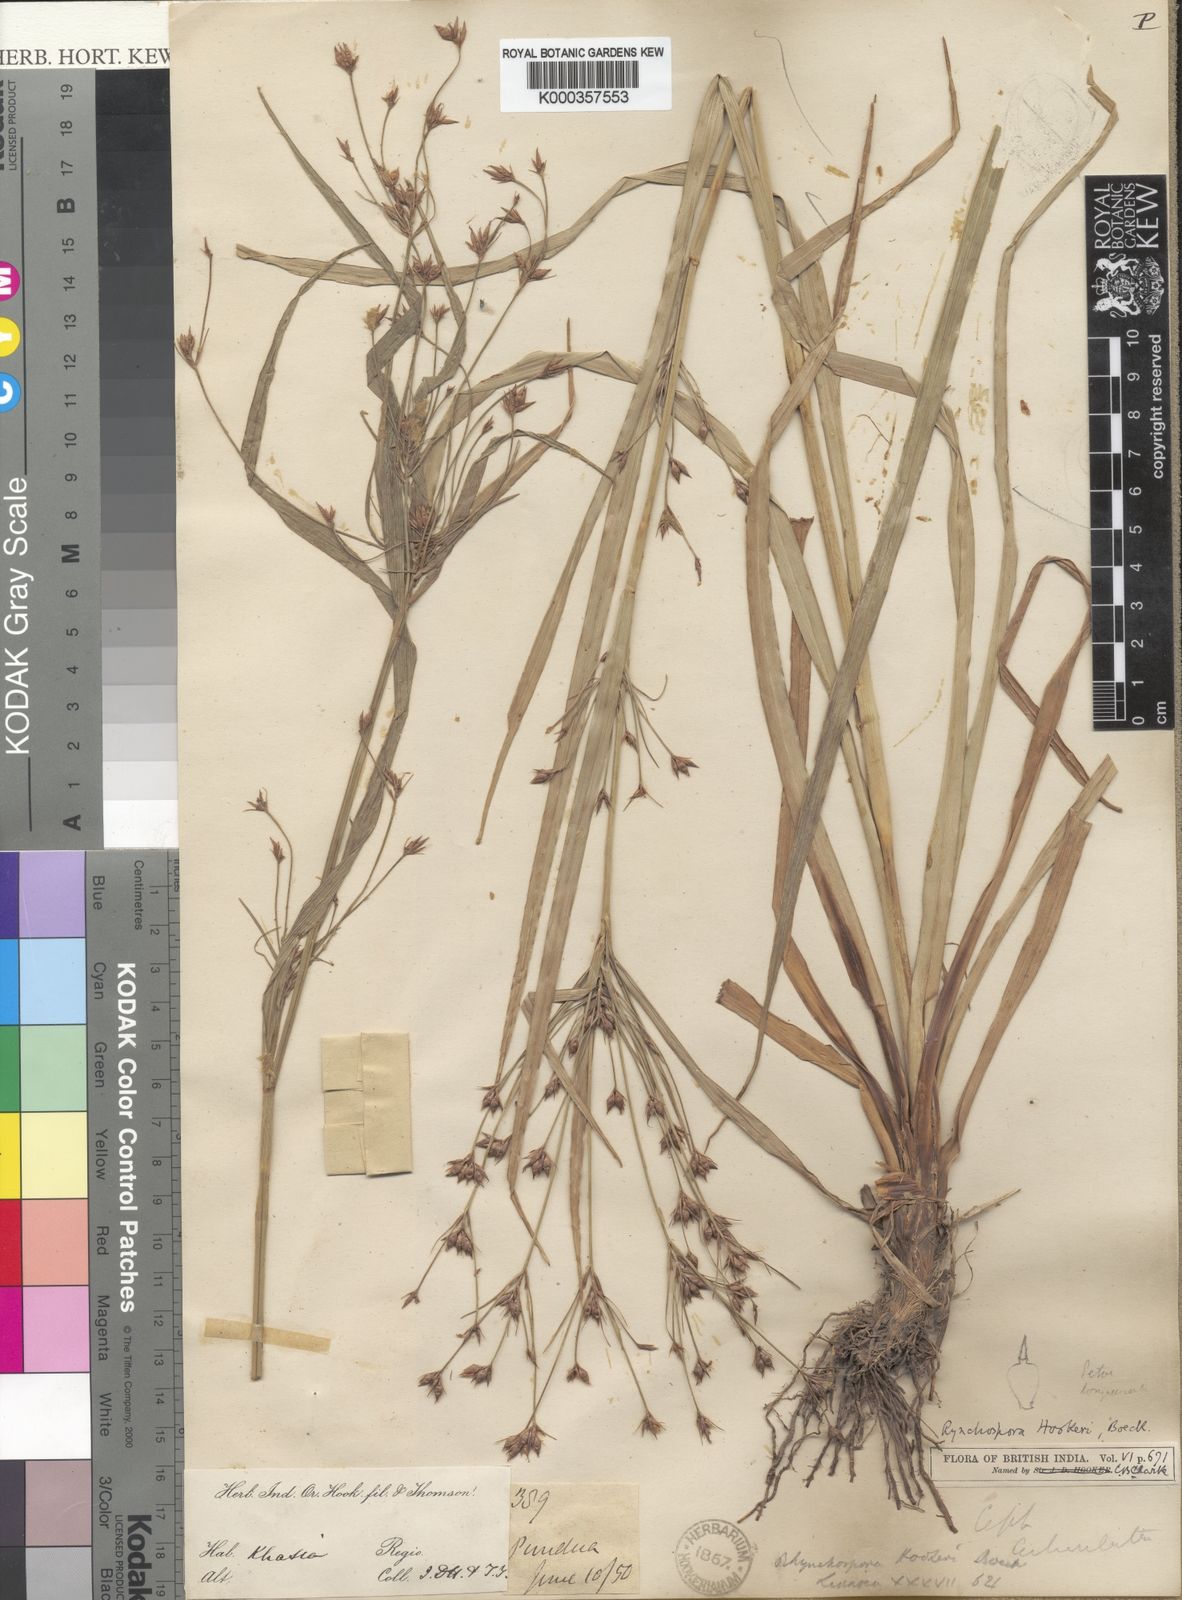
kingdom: Plantae
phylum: Tracheophyta
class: Liliopsida
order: Poales
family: Cyperaceae
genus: Rhynchospora
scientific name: Rhynchospora hookeri
